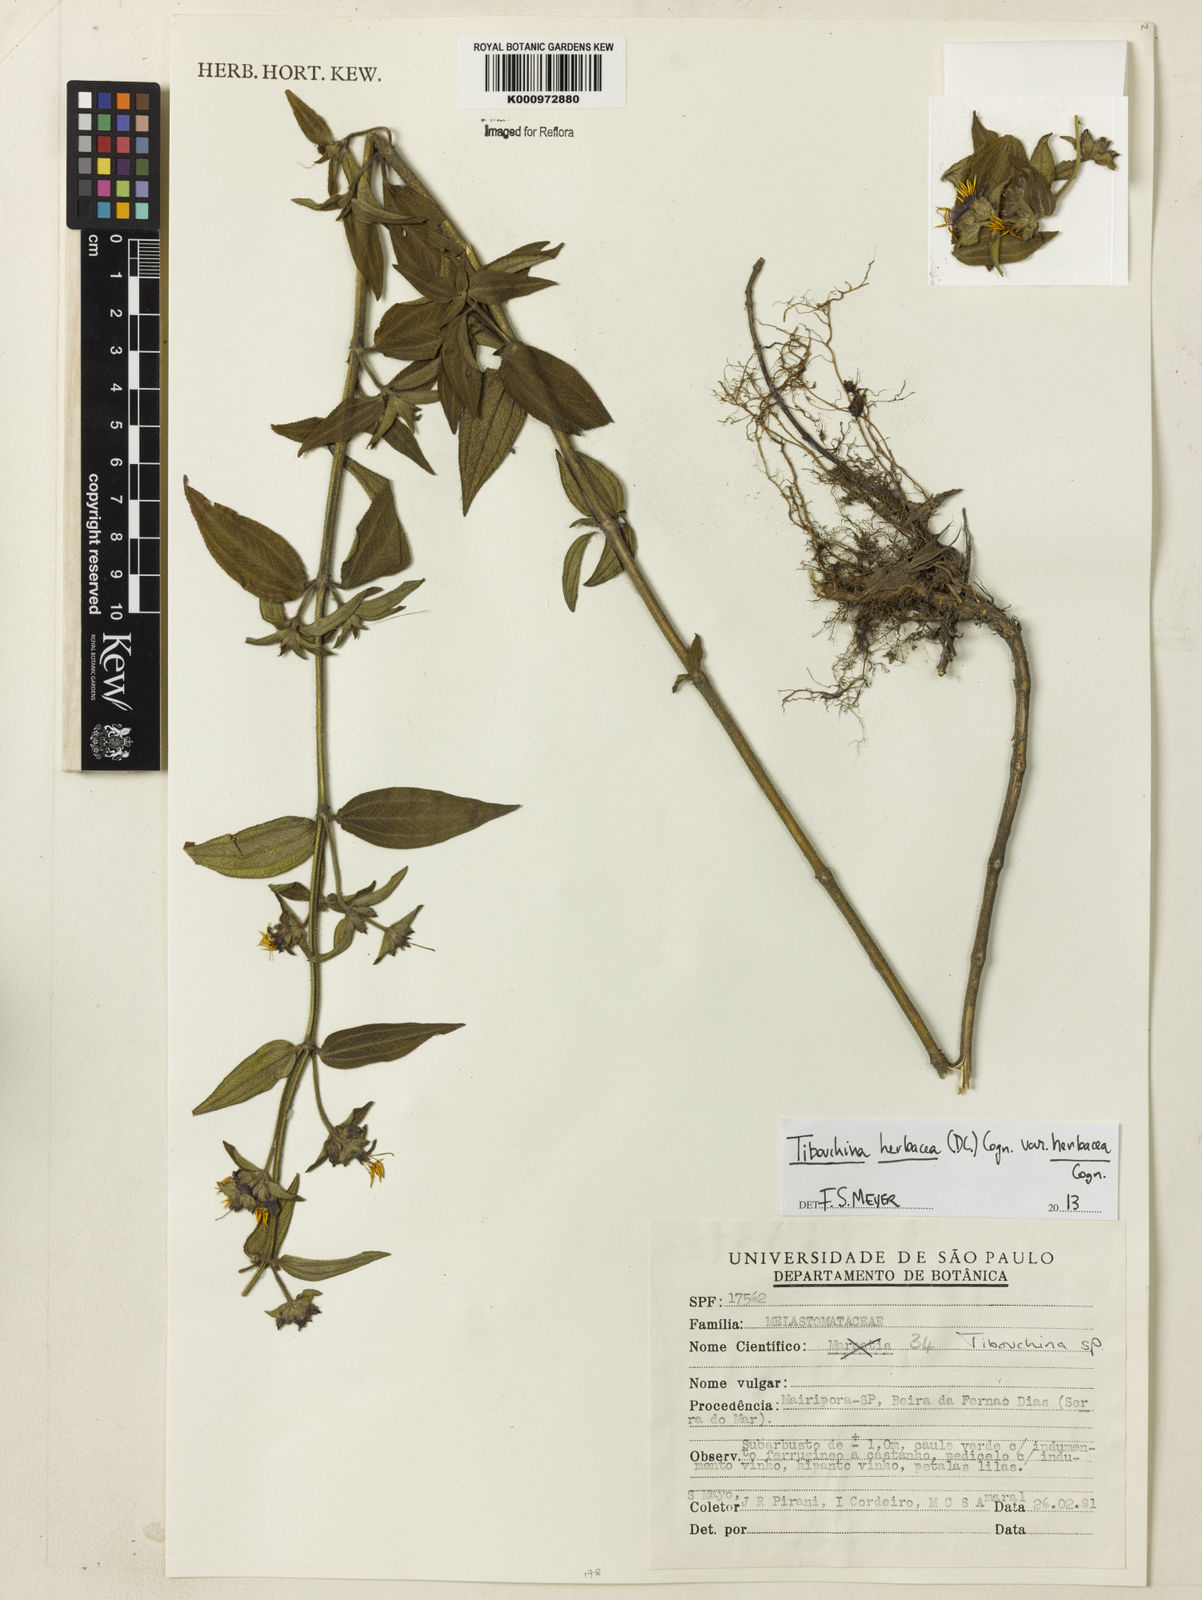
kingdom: Plantae
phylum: Tracheophyta
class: Magnoliopsida
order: Myrtales
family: Melastomataceae
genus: Chaetogastra
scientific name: Chaetogastra herbacea
